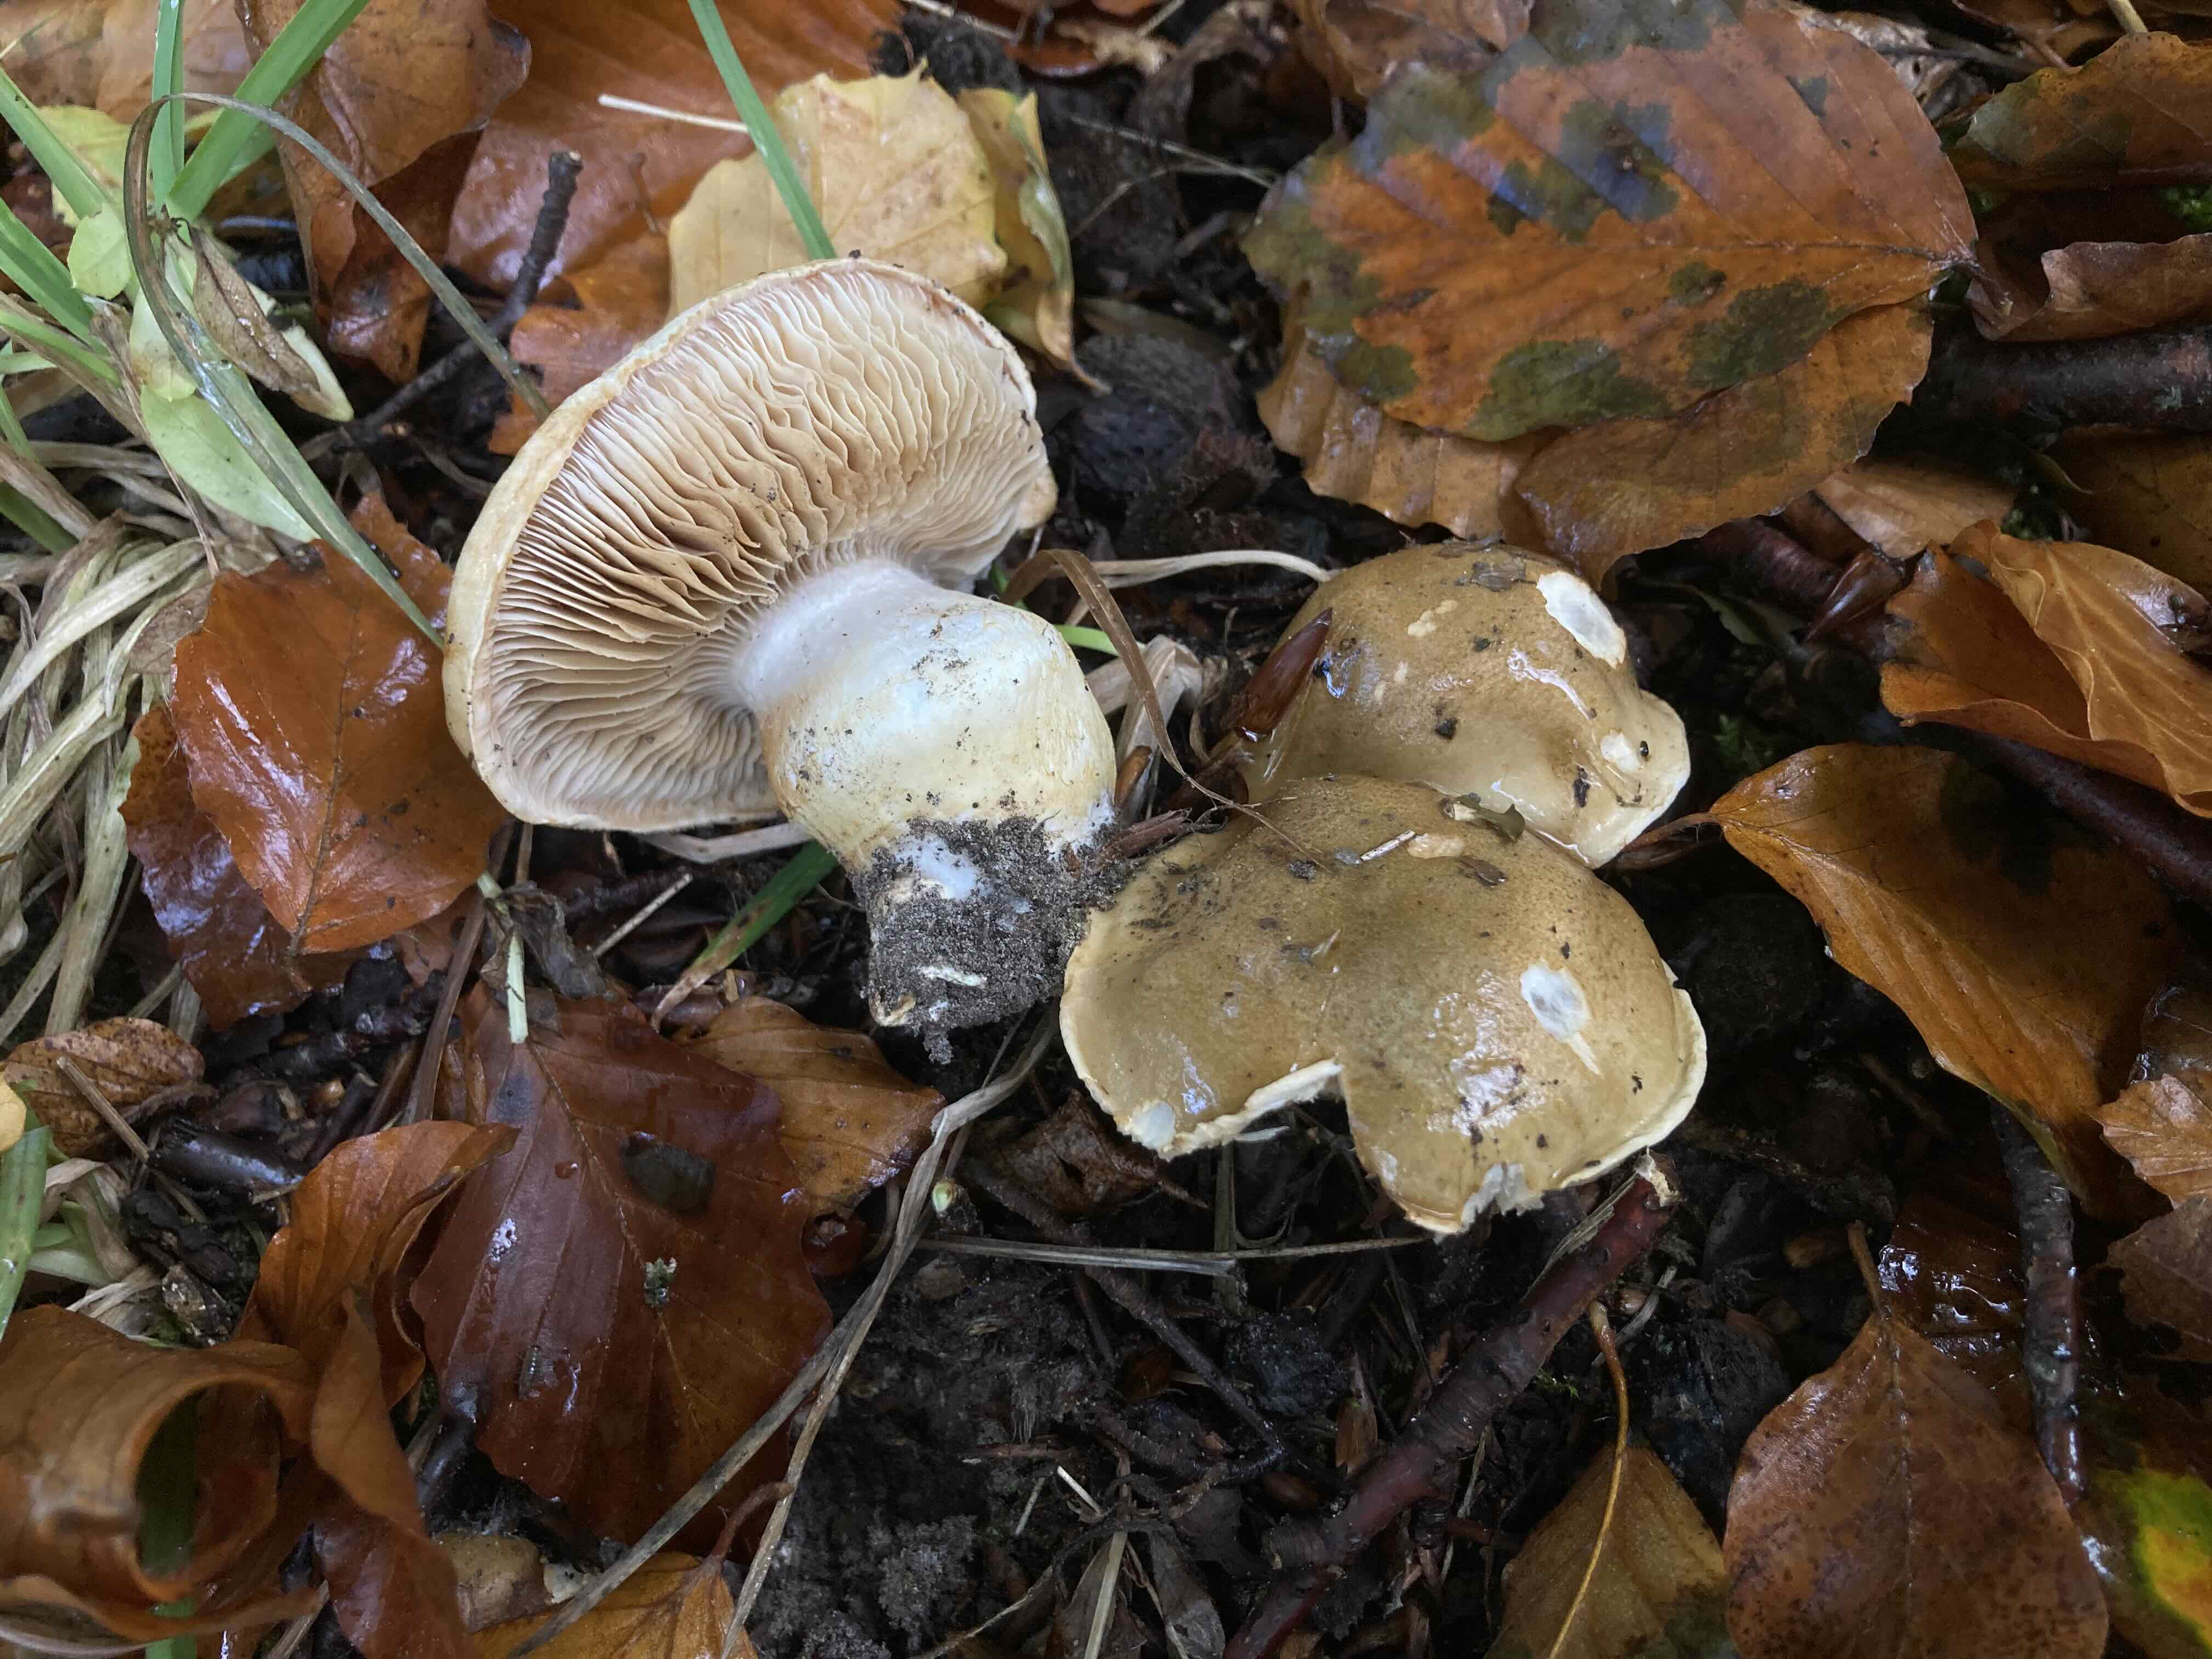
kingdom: Fungi
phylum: Basidiomycota
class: Agaricomycetes
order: Agaricales
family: Cortinariaceae
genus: Phlegmacium
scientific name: Phlegmacium cliduchus
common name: majs-slørhat
